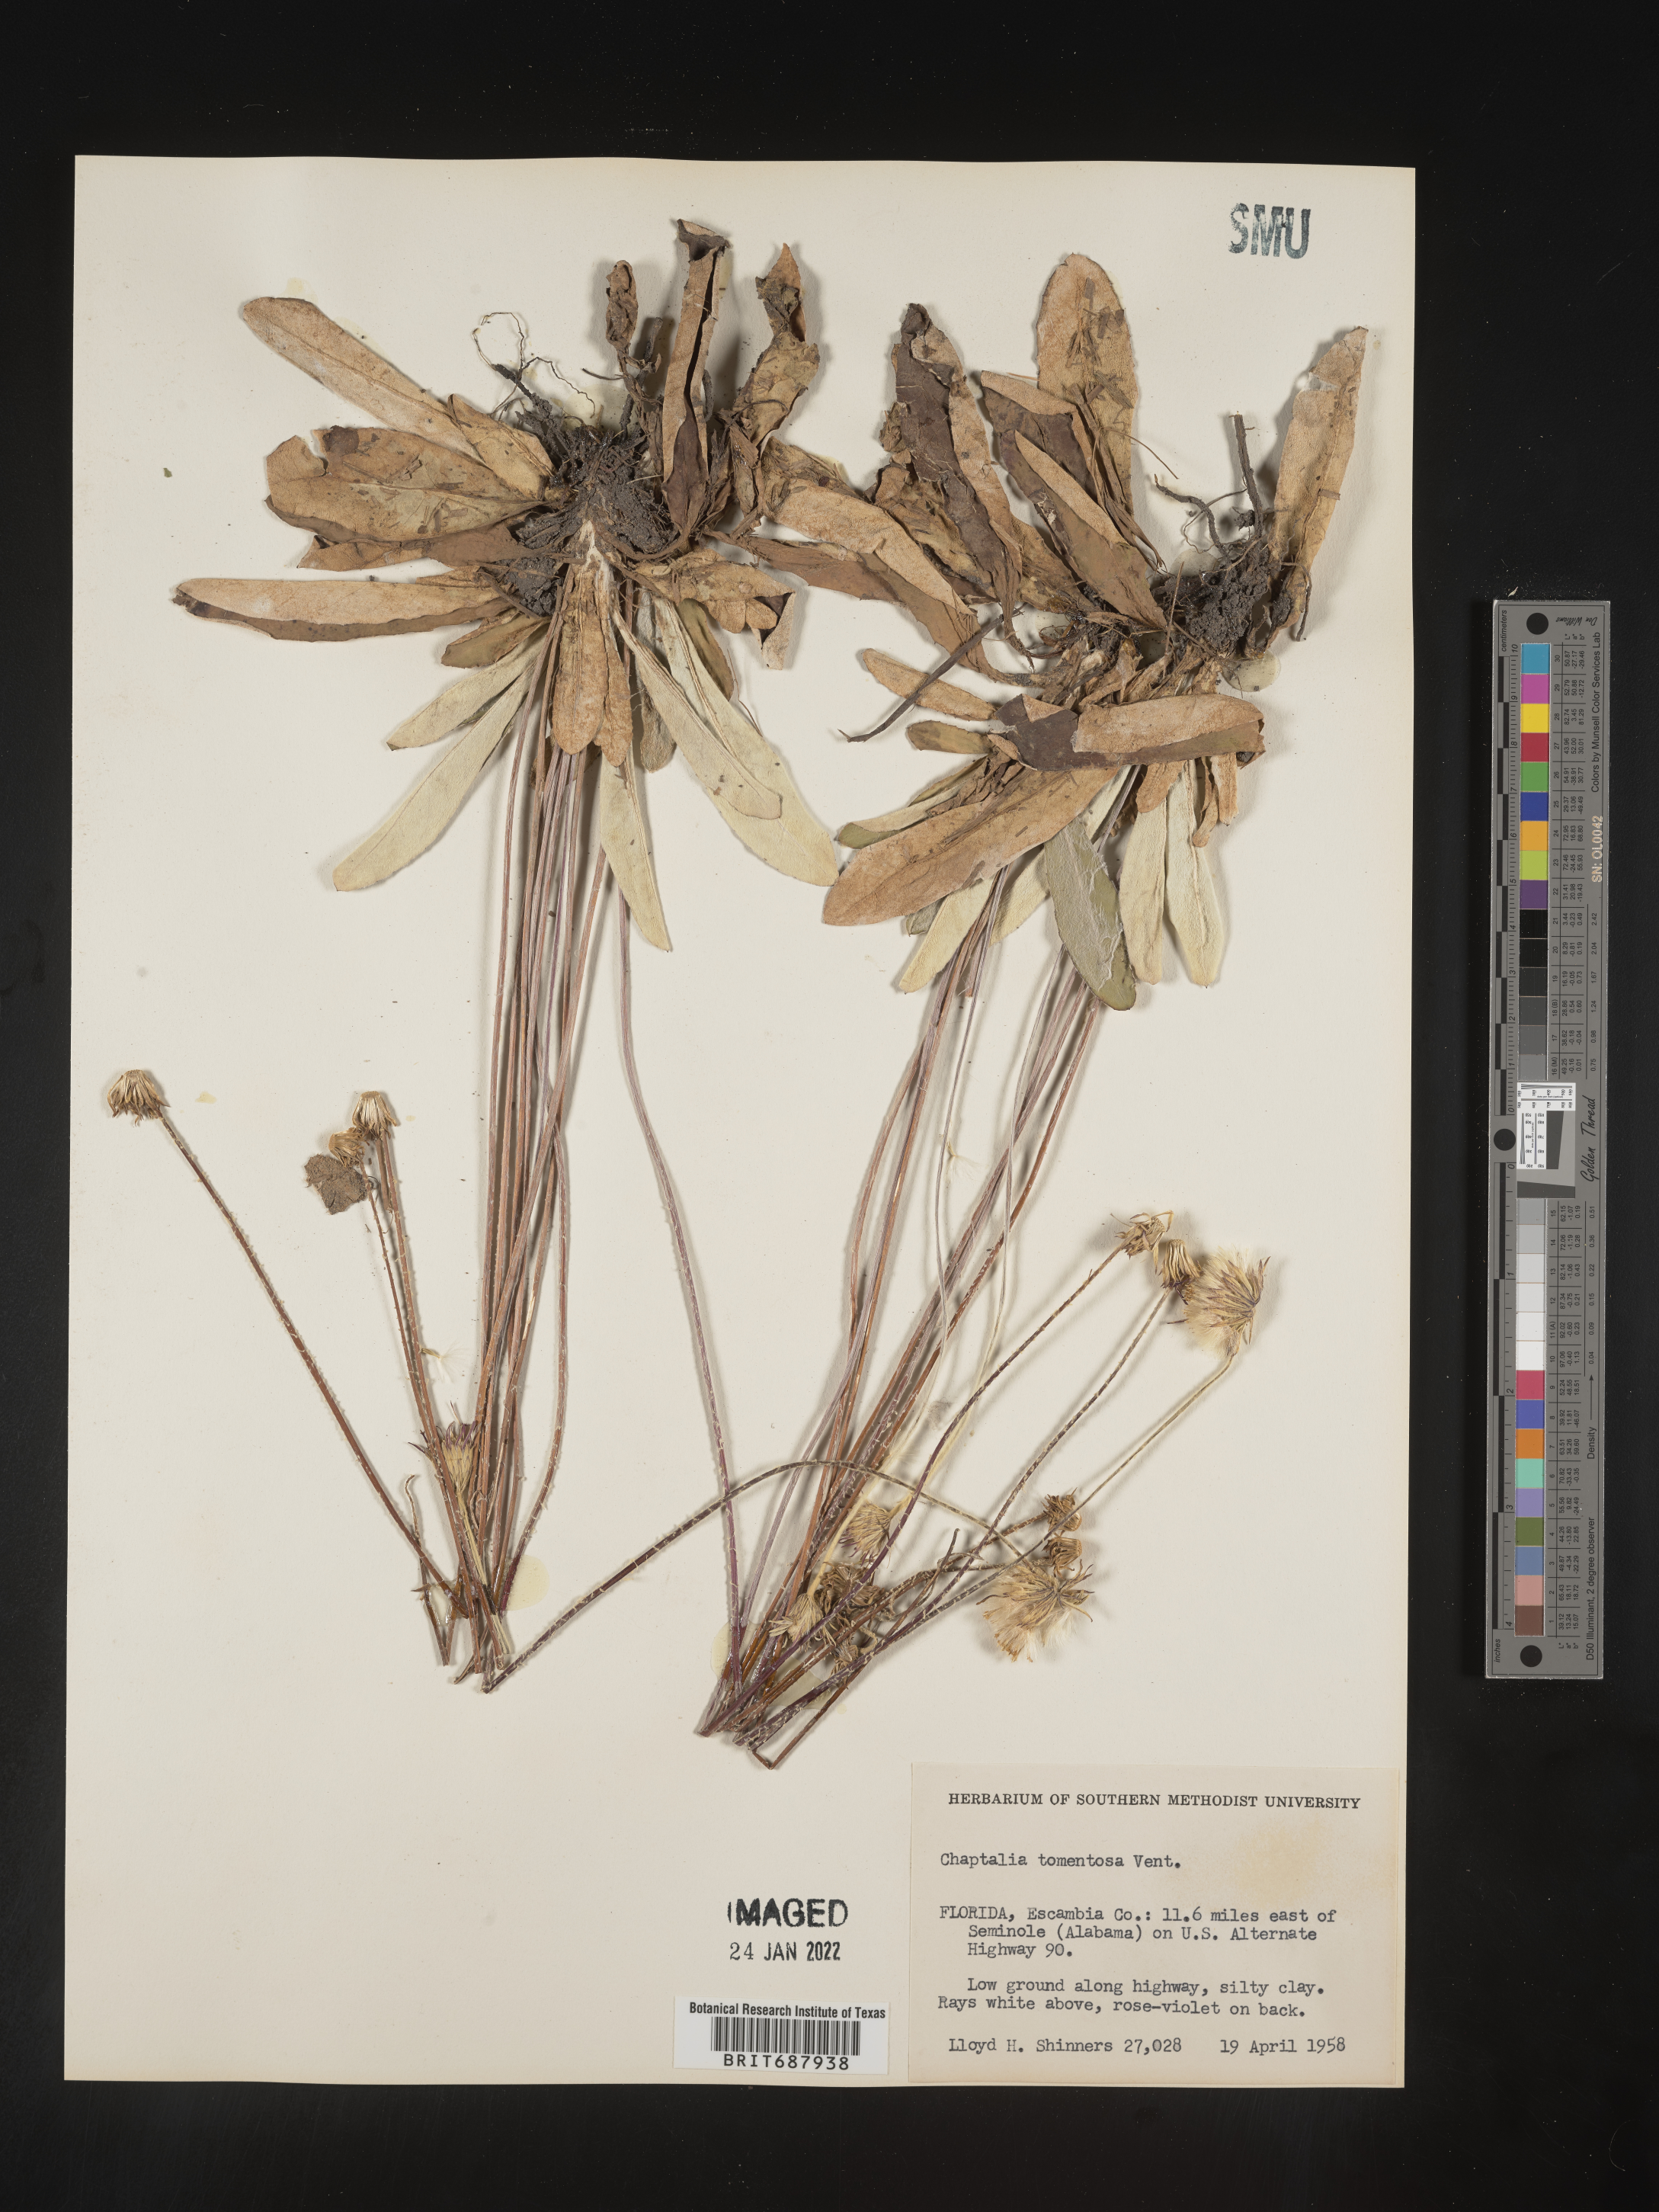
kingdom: Plantae
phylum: Tracheophyta
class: Magnoliopsida
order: Asterales
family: Asteraceae
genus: Chaptalia
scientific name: Chaptalia tomentosa
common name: Woolly sunbonnet
